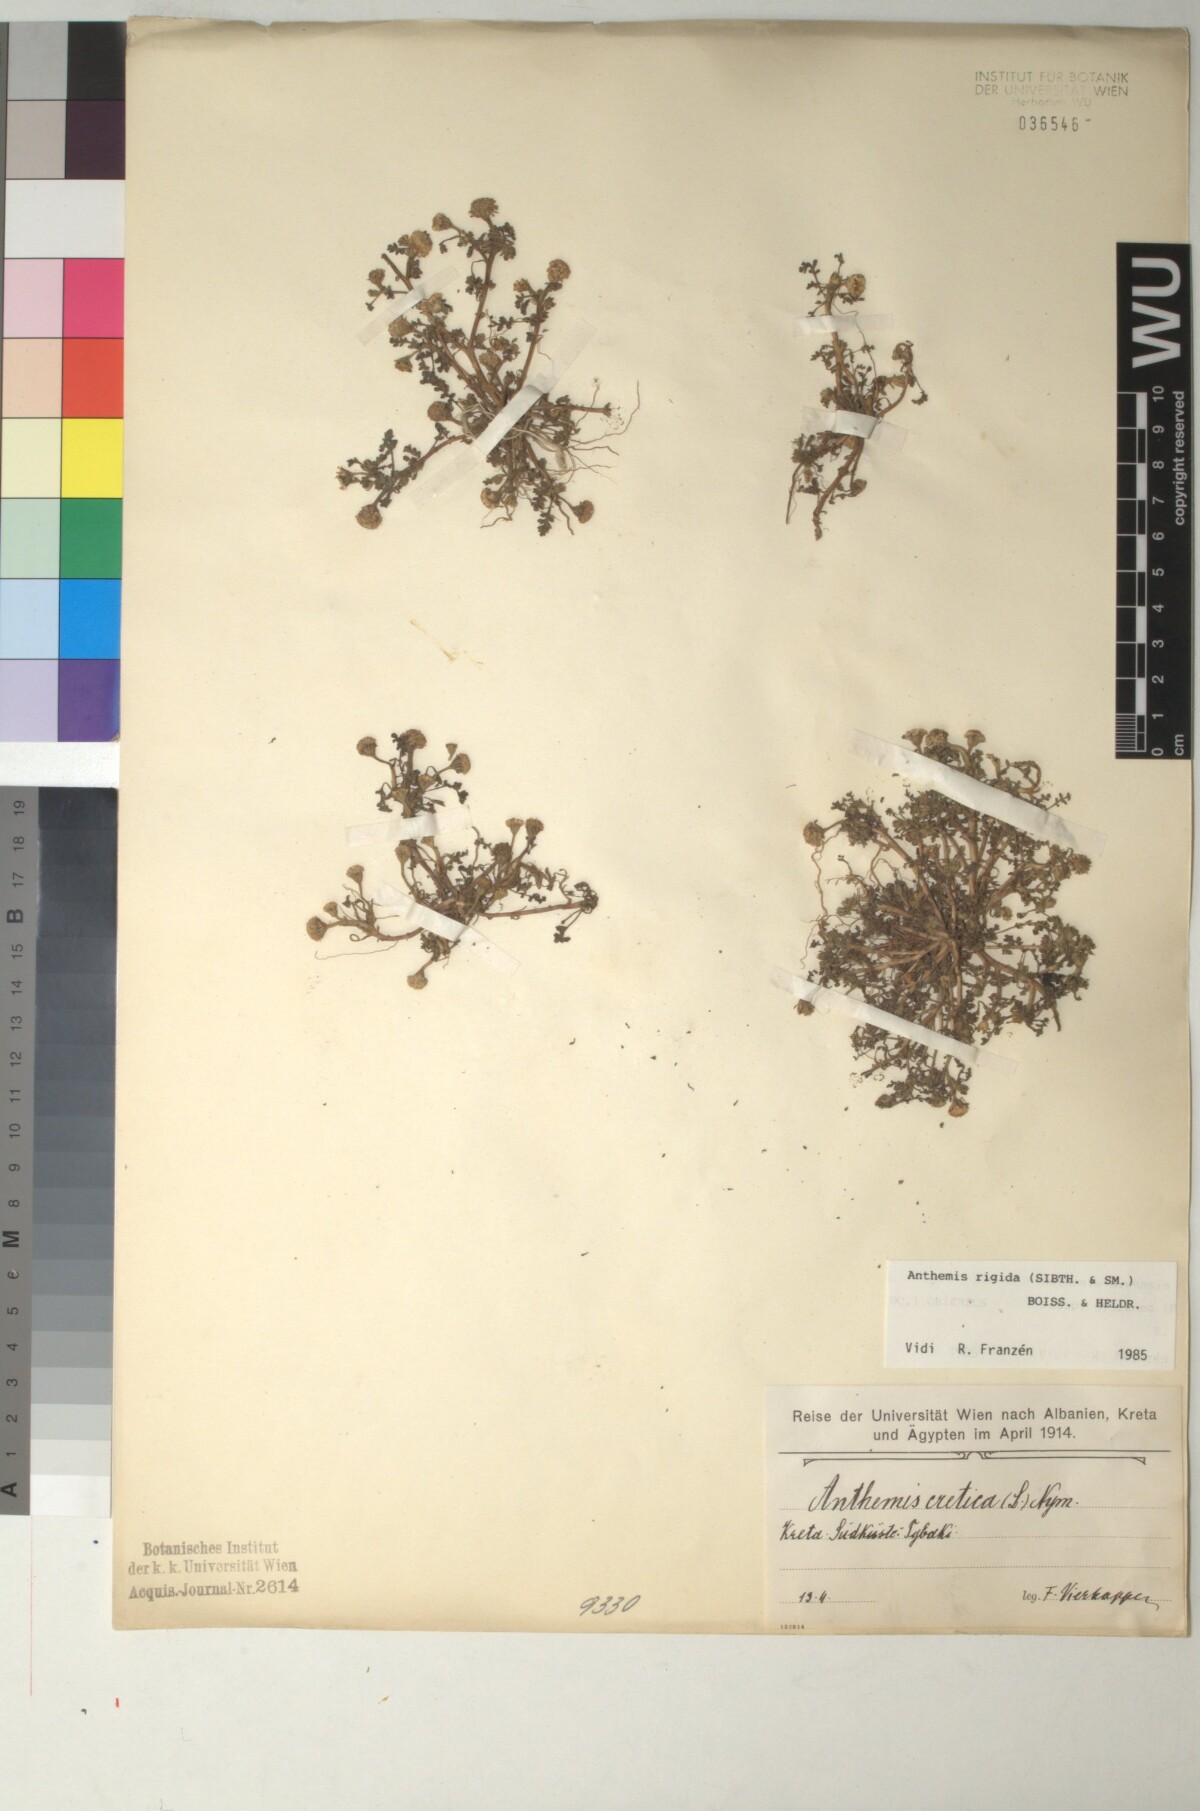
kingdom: Plantae
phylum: Tracheophyta
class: Magnoliopsida
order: Asterales
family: Asteraceae
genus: Anthemis
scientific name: Anthemis rigida
